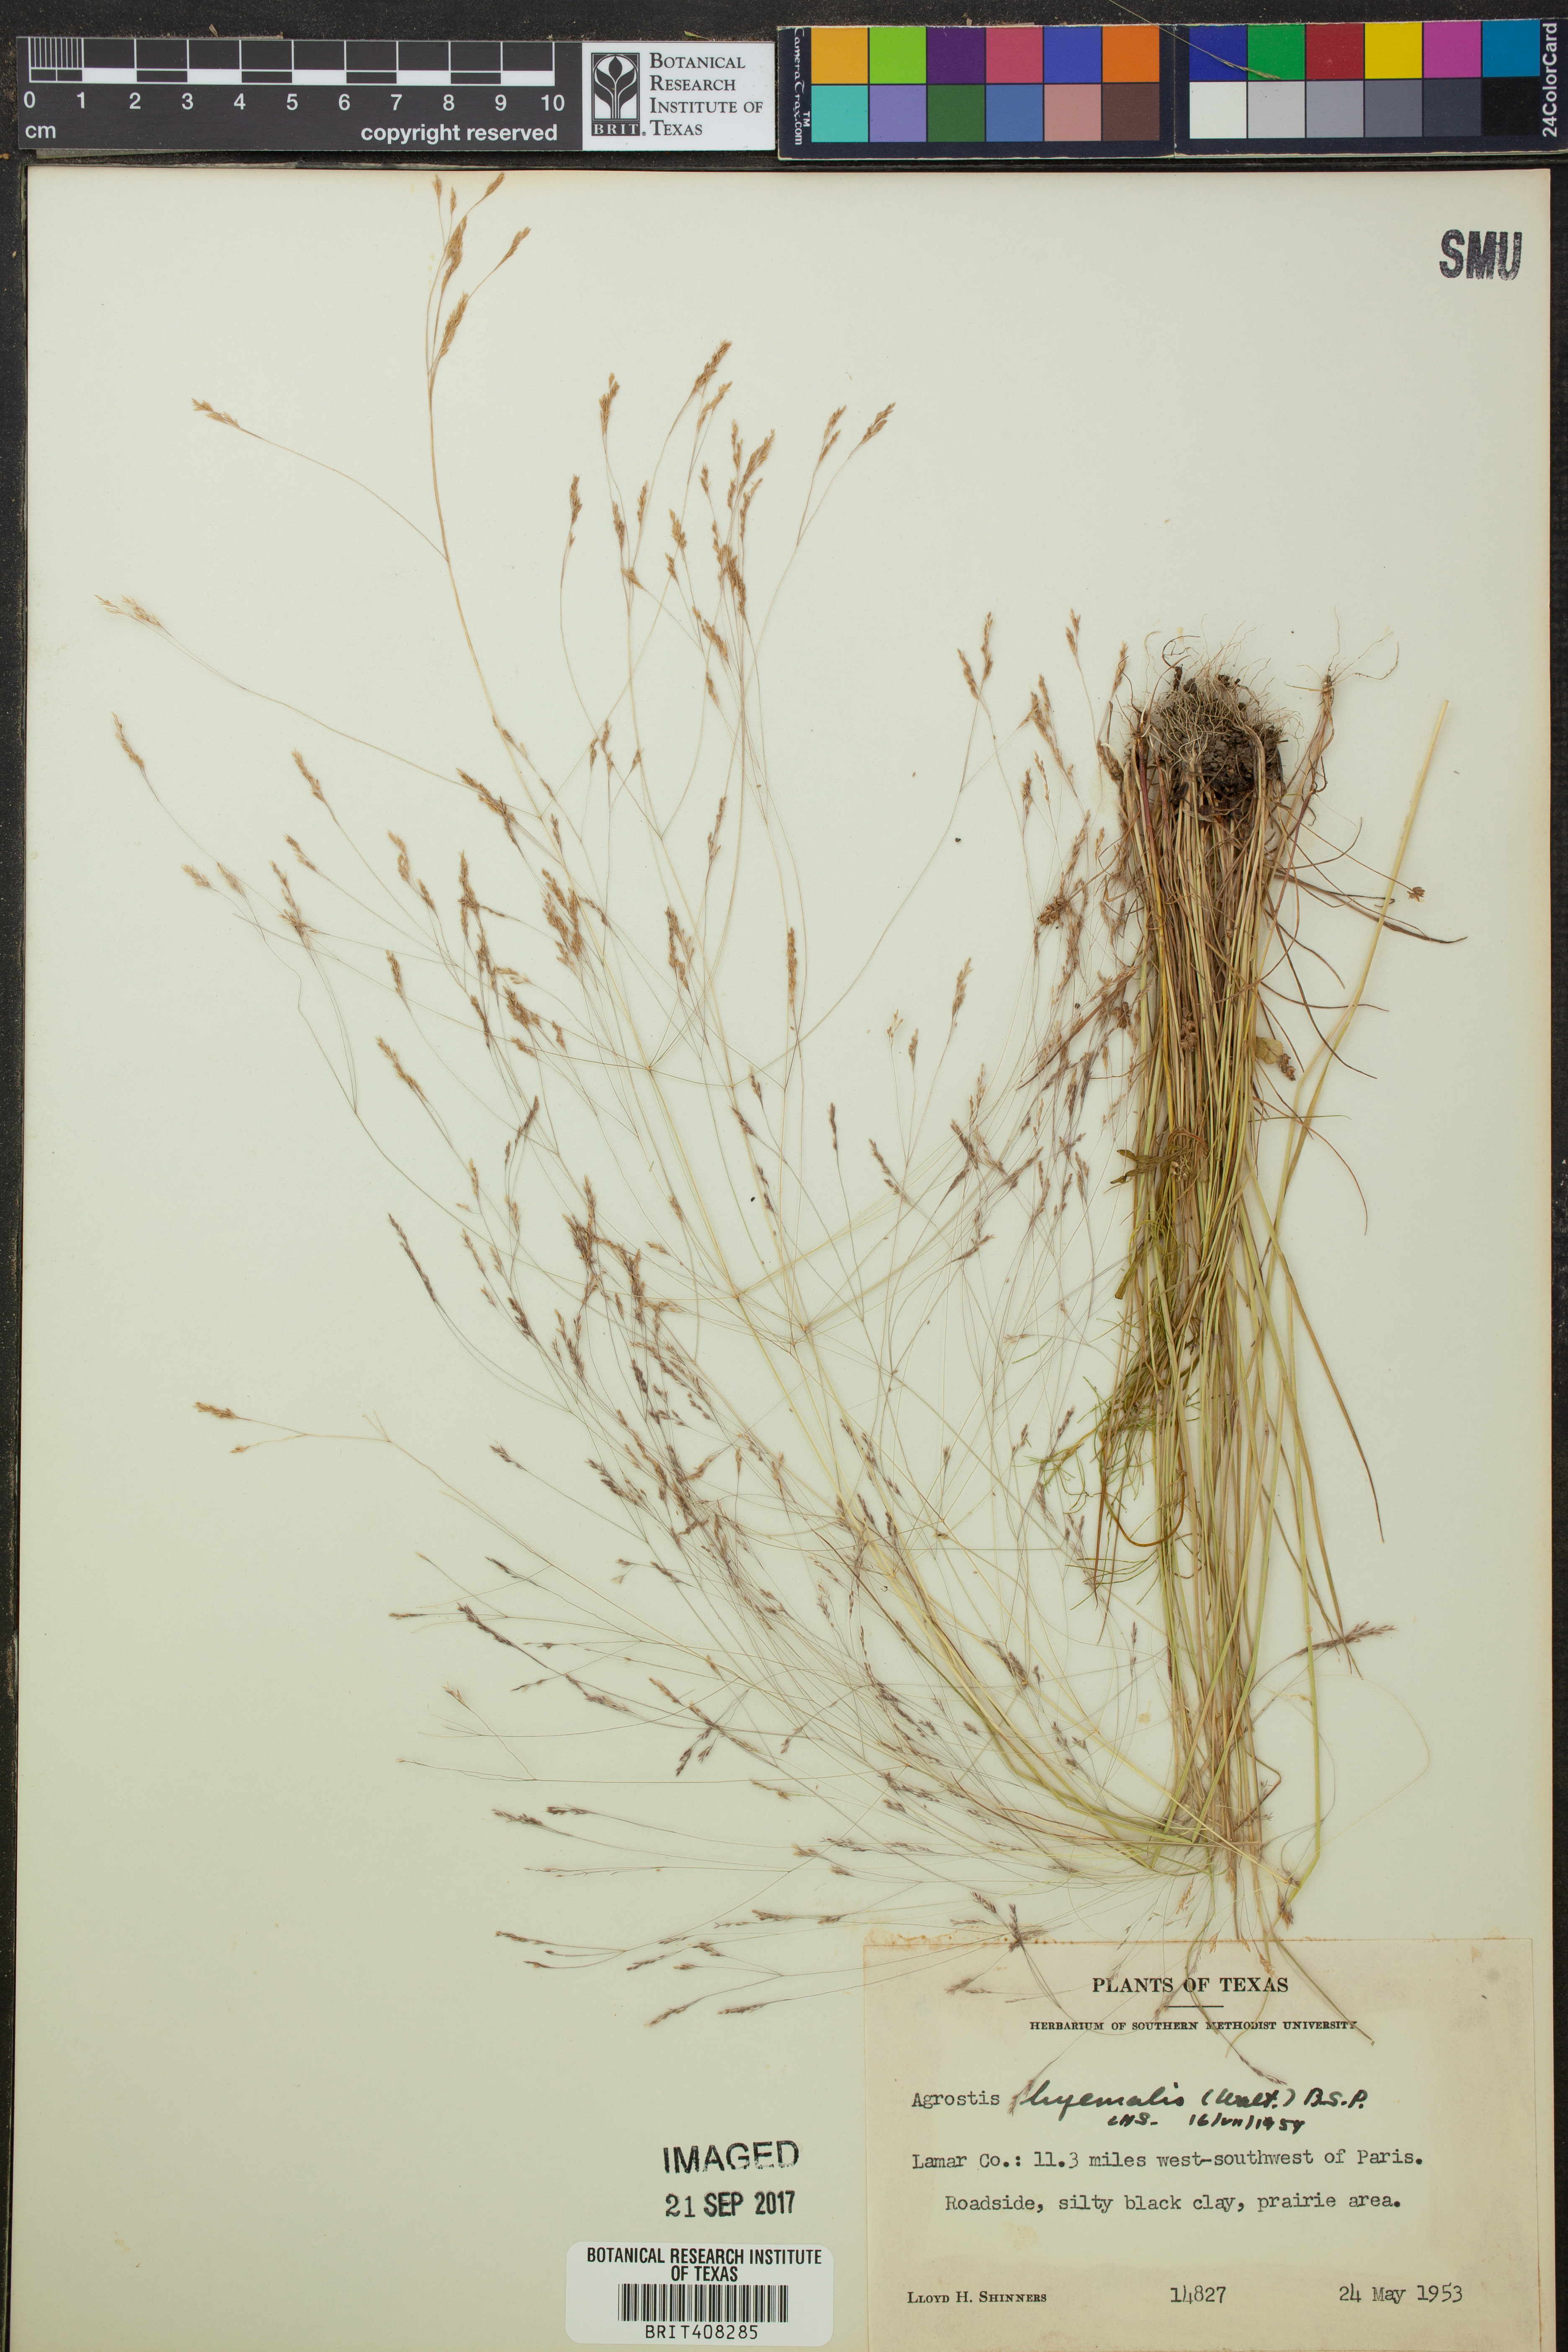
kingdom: Plantae
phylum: Tracheophyta
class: Liliopsida
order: Poales
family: Poaceae
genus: Agrostis
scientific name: Agrostis hyemalis
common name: Small bent
